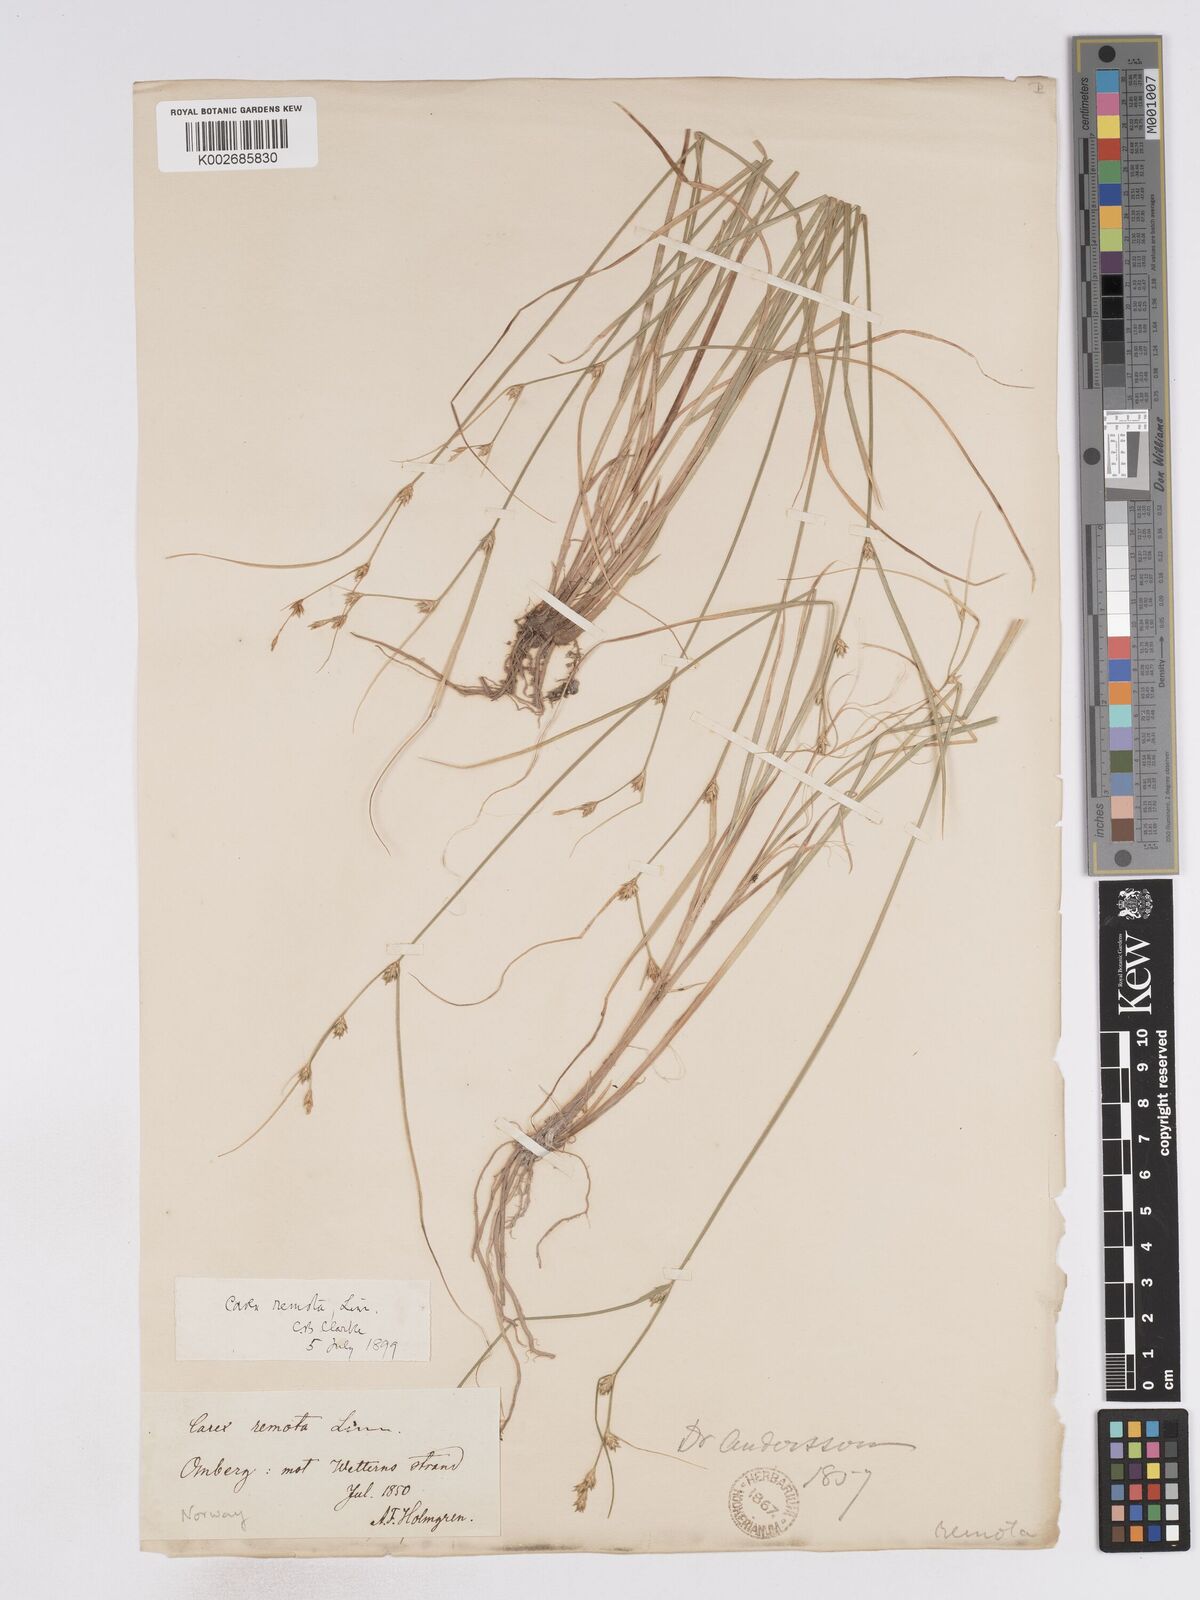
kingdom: Plantae
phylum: Tracheophyta
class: Liliopsida
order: Poales
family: Cyperaceae
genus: Carex
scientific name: Carex remota
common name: Remote sedge
